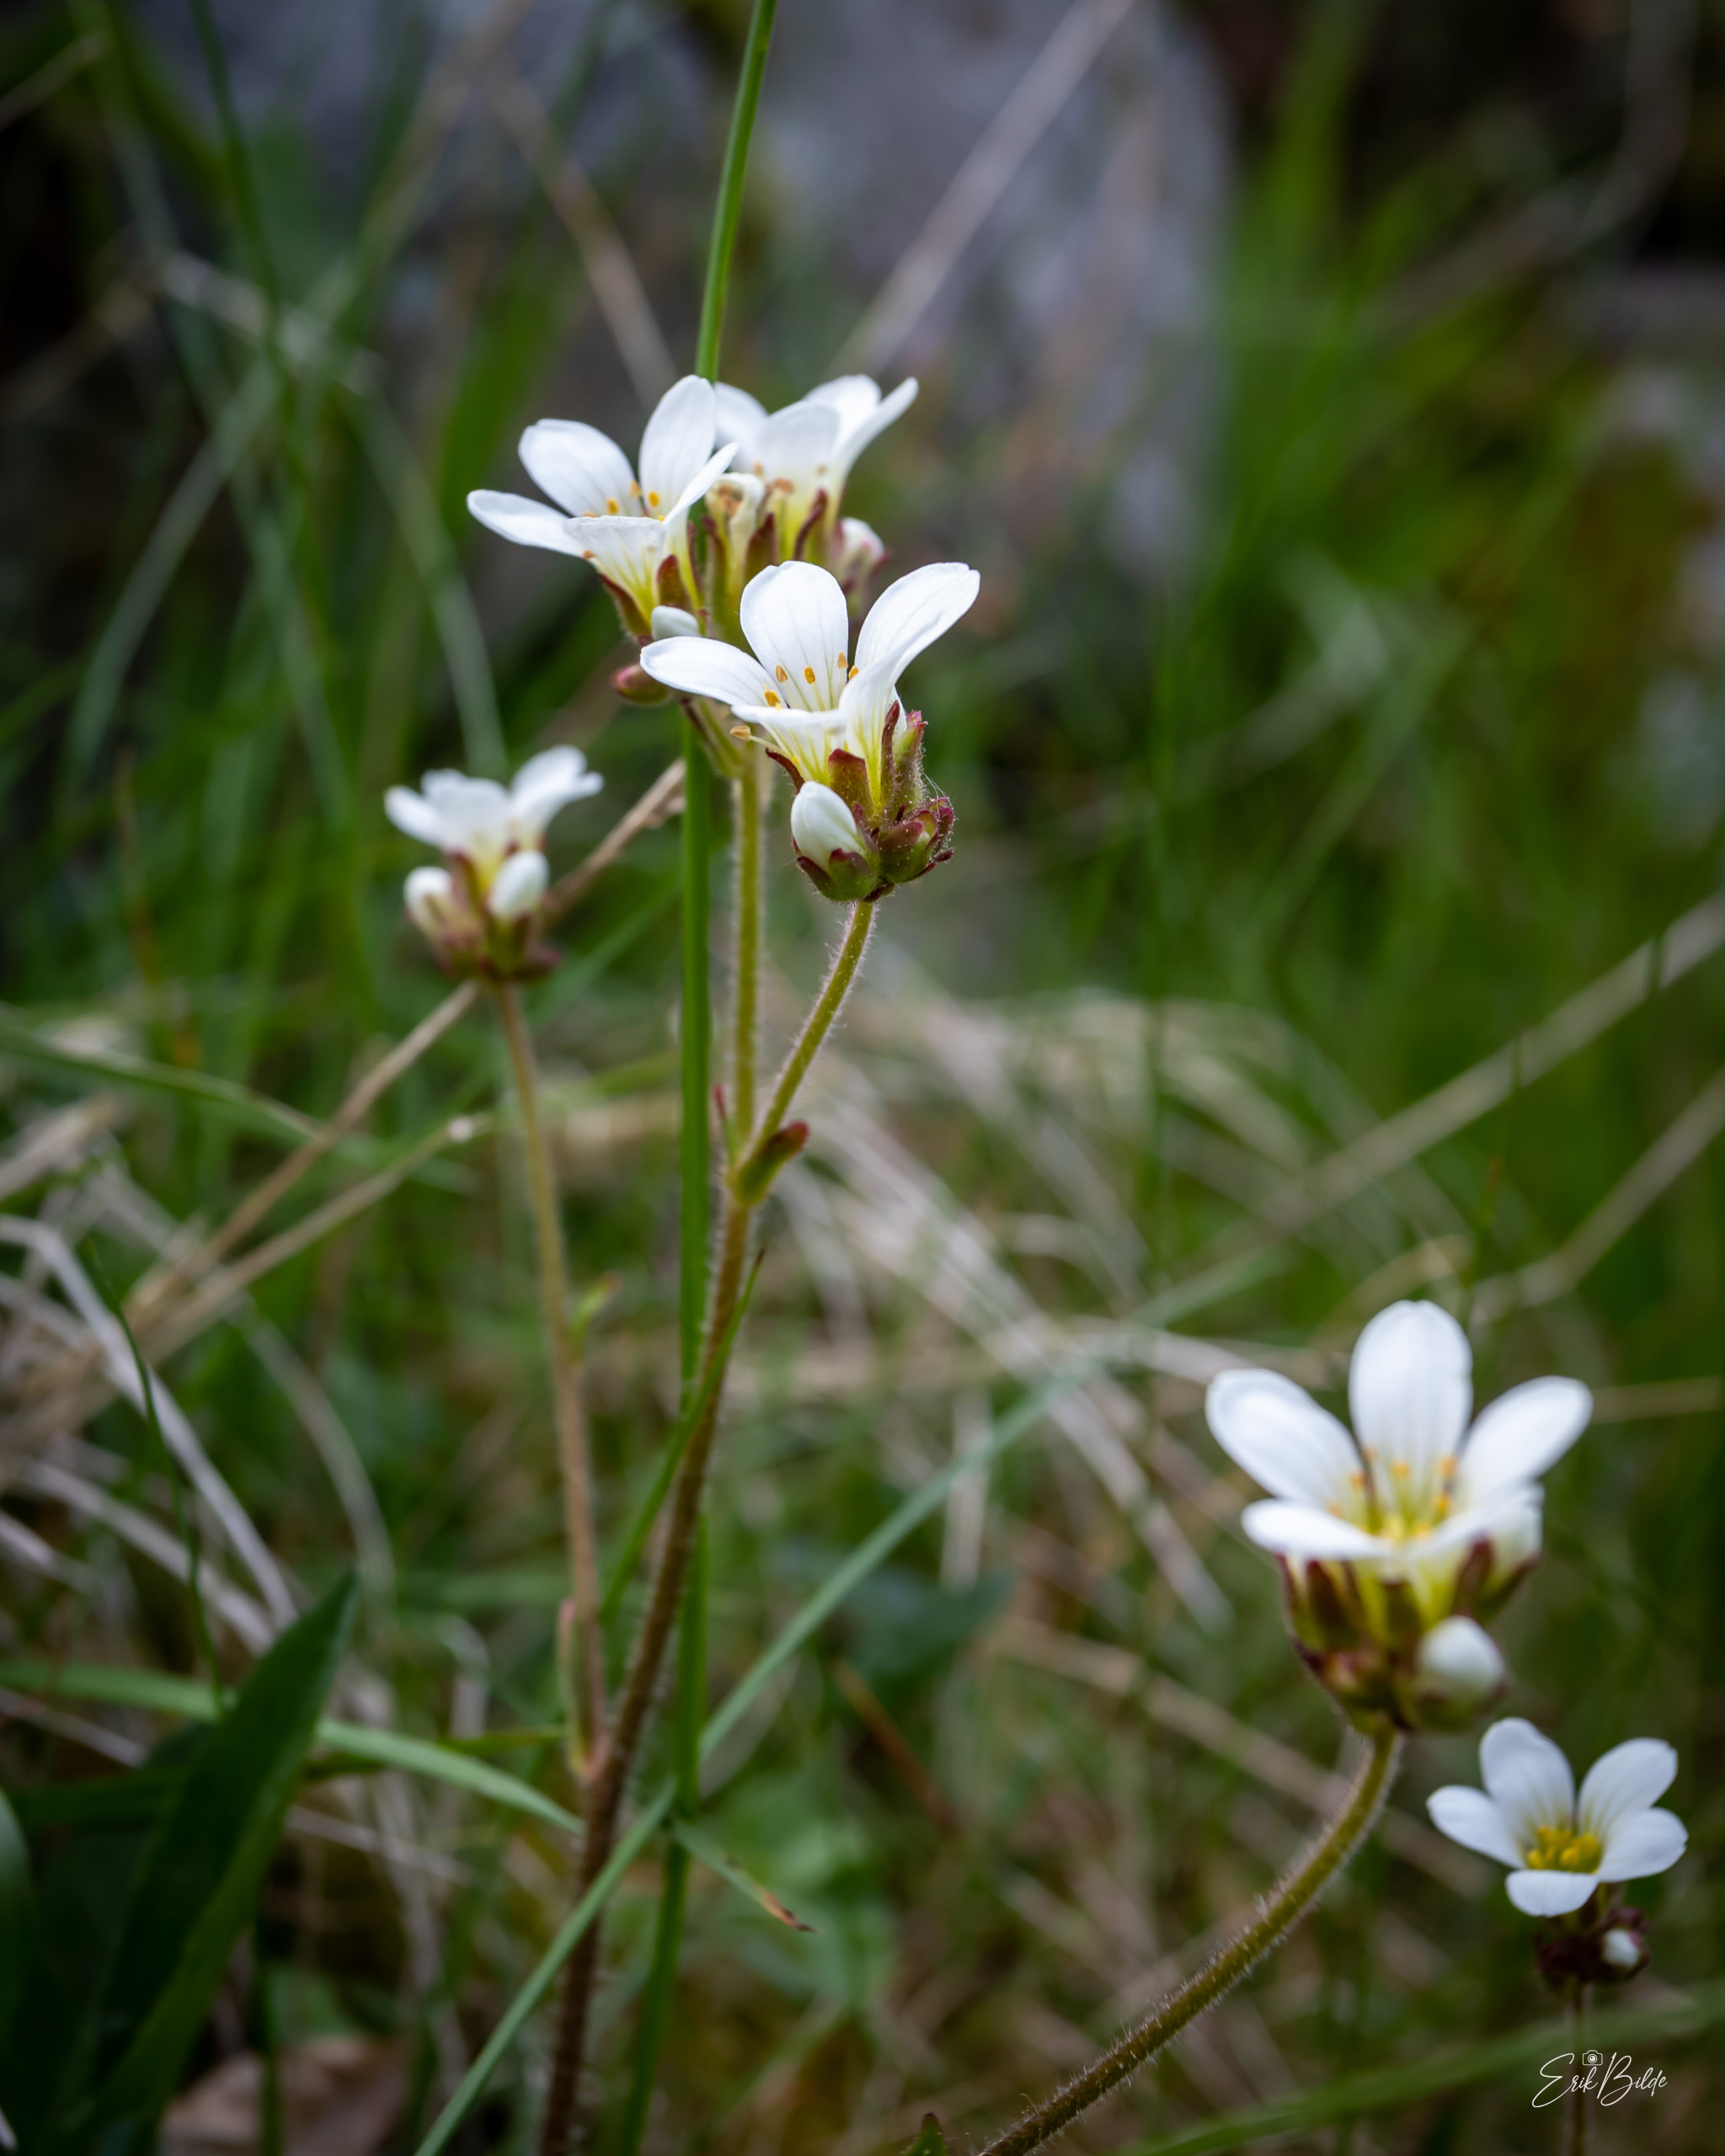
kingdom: Plantae
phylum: Tracheophyta
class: Magnoliopsida
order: Saxifragales
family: Saxifragaceae
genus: Saxifraga
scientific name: Saxifraga granulata
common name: Kornet stenbræk
